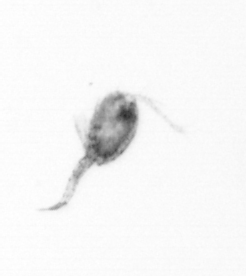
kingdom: Animalia
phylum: Arthropoda
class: Copepoda
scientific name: Copepoda
